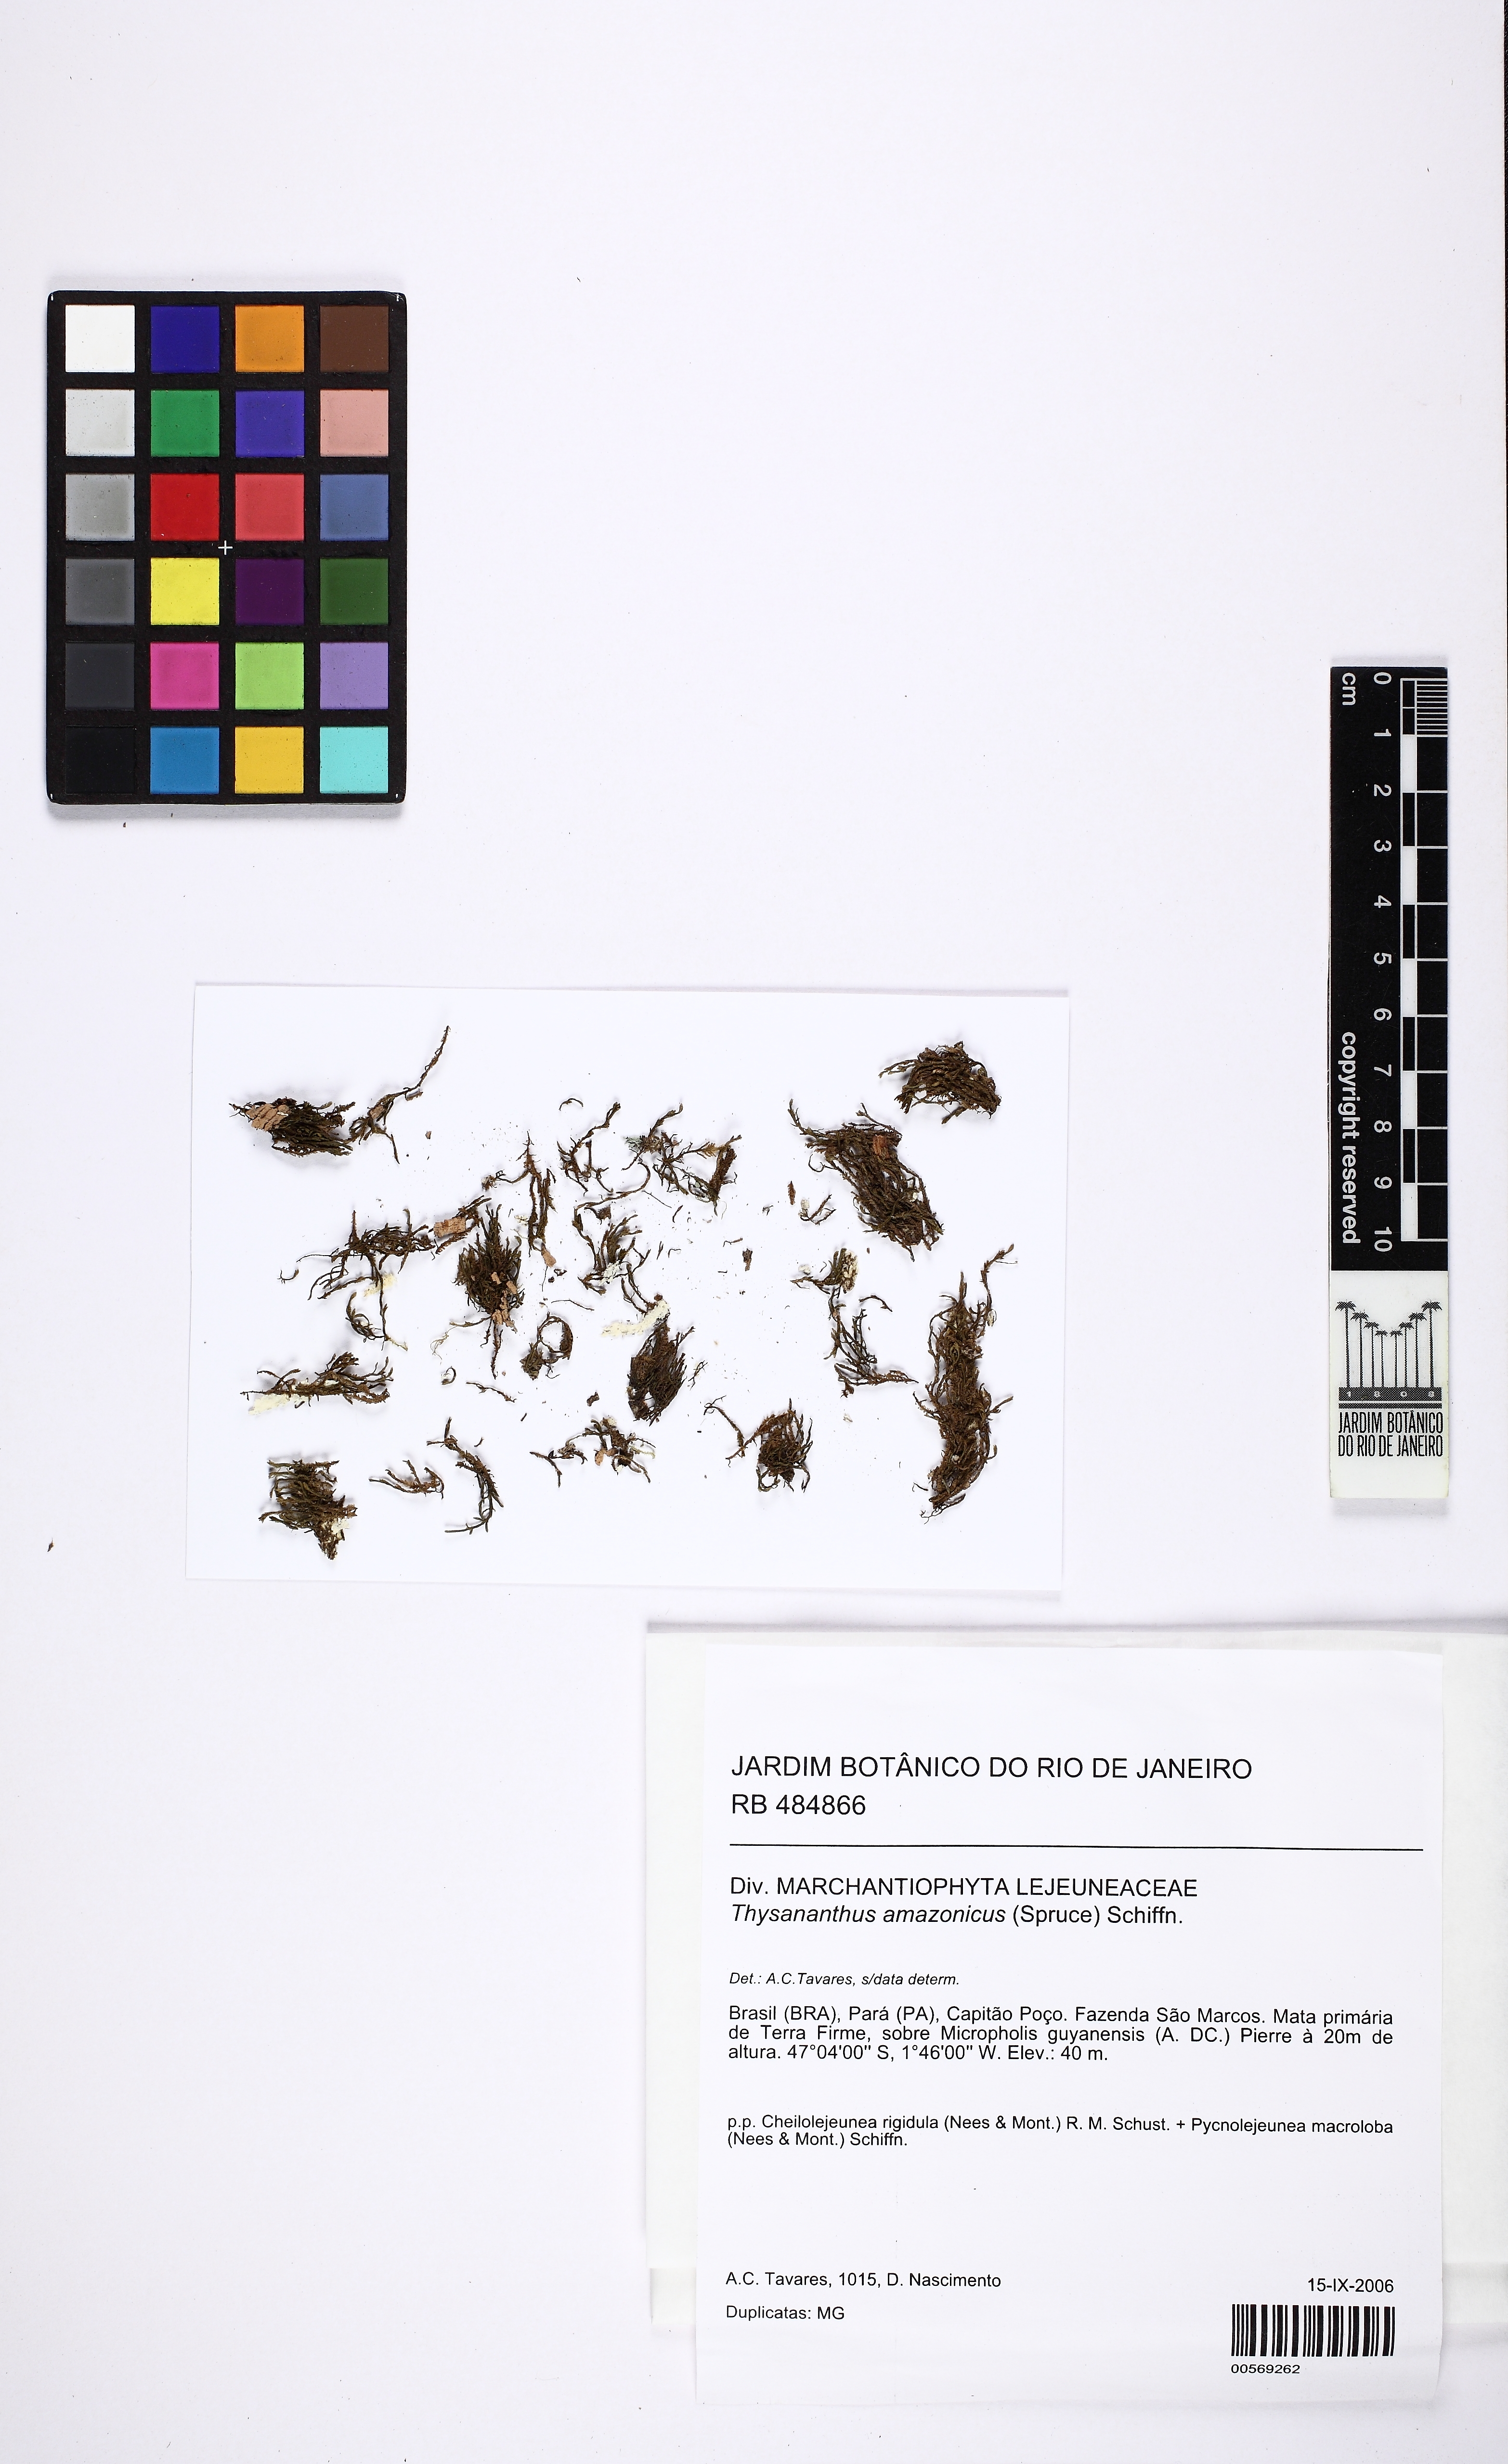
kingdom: Plantae
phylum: Marchantiophyta
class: Jungermanniopsida
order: Porellales
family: Lejeuneaceae
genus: Thysananthus
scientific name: Thysananthus amazonicus
